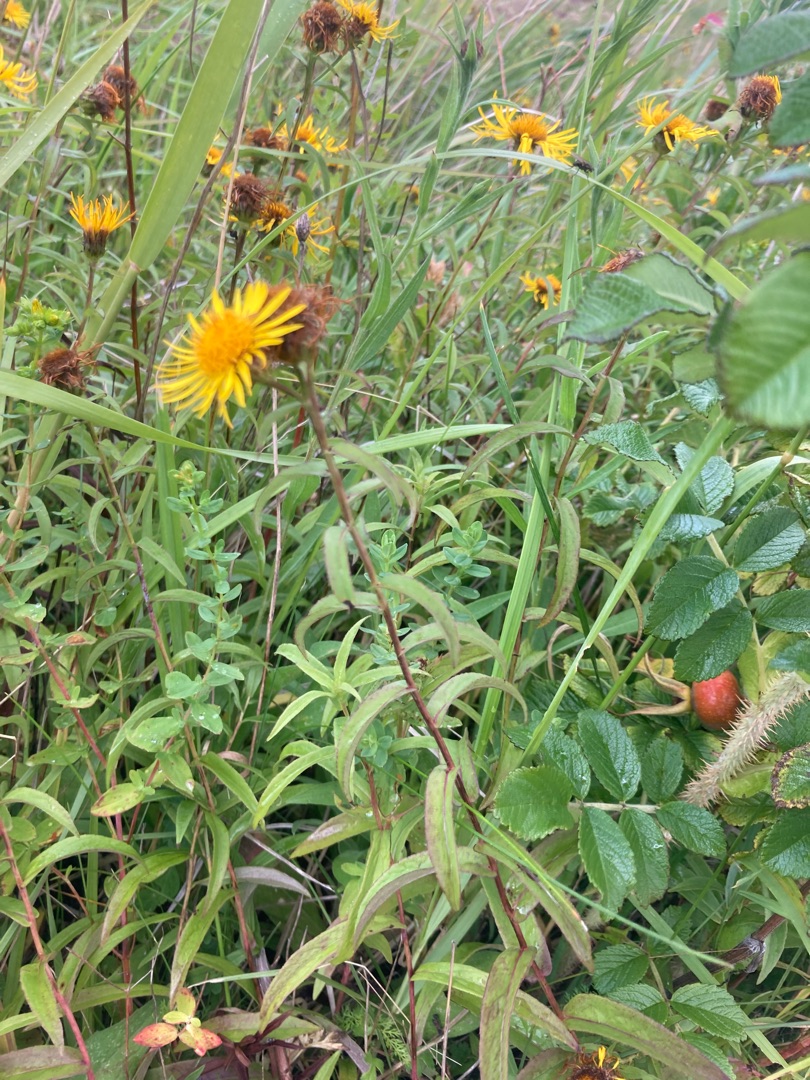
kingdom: Plantae
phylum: Tracheophyta
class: Magnoliopsida
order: Asterales
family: Asteraceae
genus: Pentanema
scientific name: Pentanema salicinum
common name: Pile-alant
